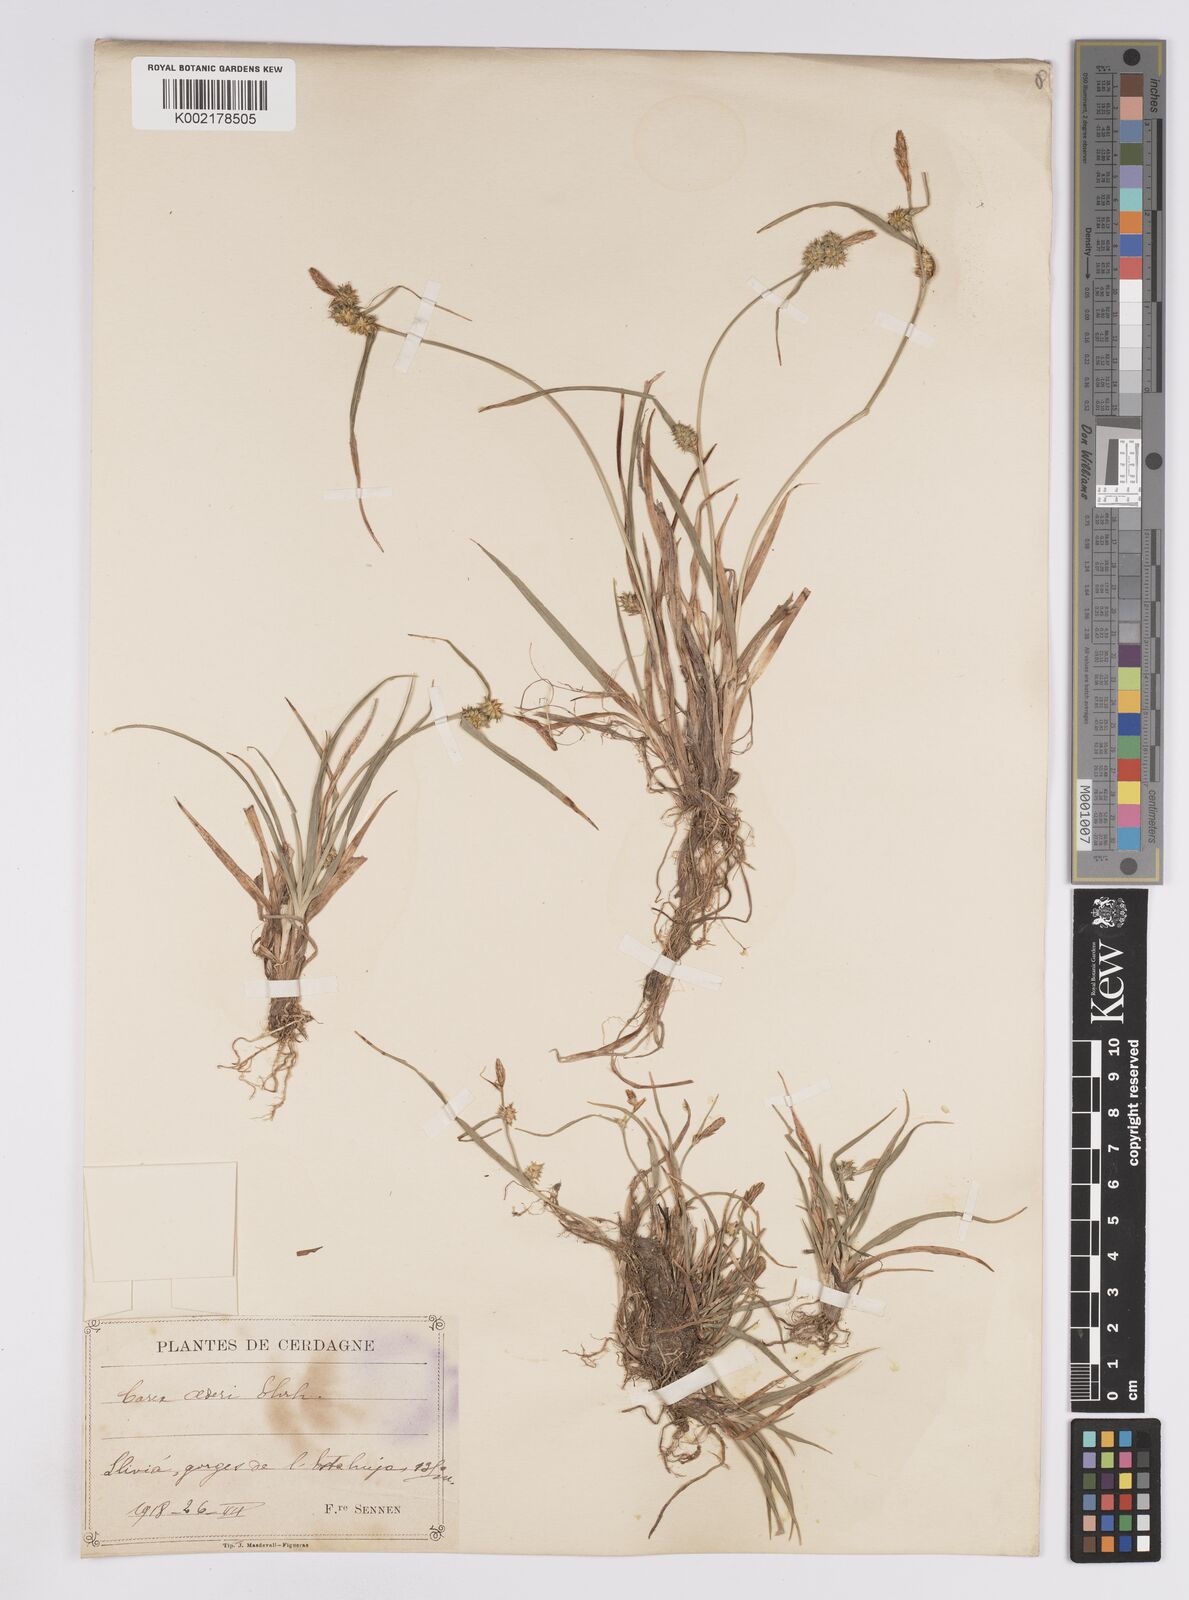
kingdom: Plantae
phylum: Tracheophyta
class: Liliopsida
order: Poales
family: Cyperaceae
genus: Carex
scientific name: Carex demissa
